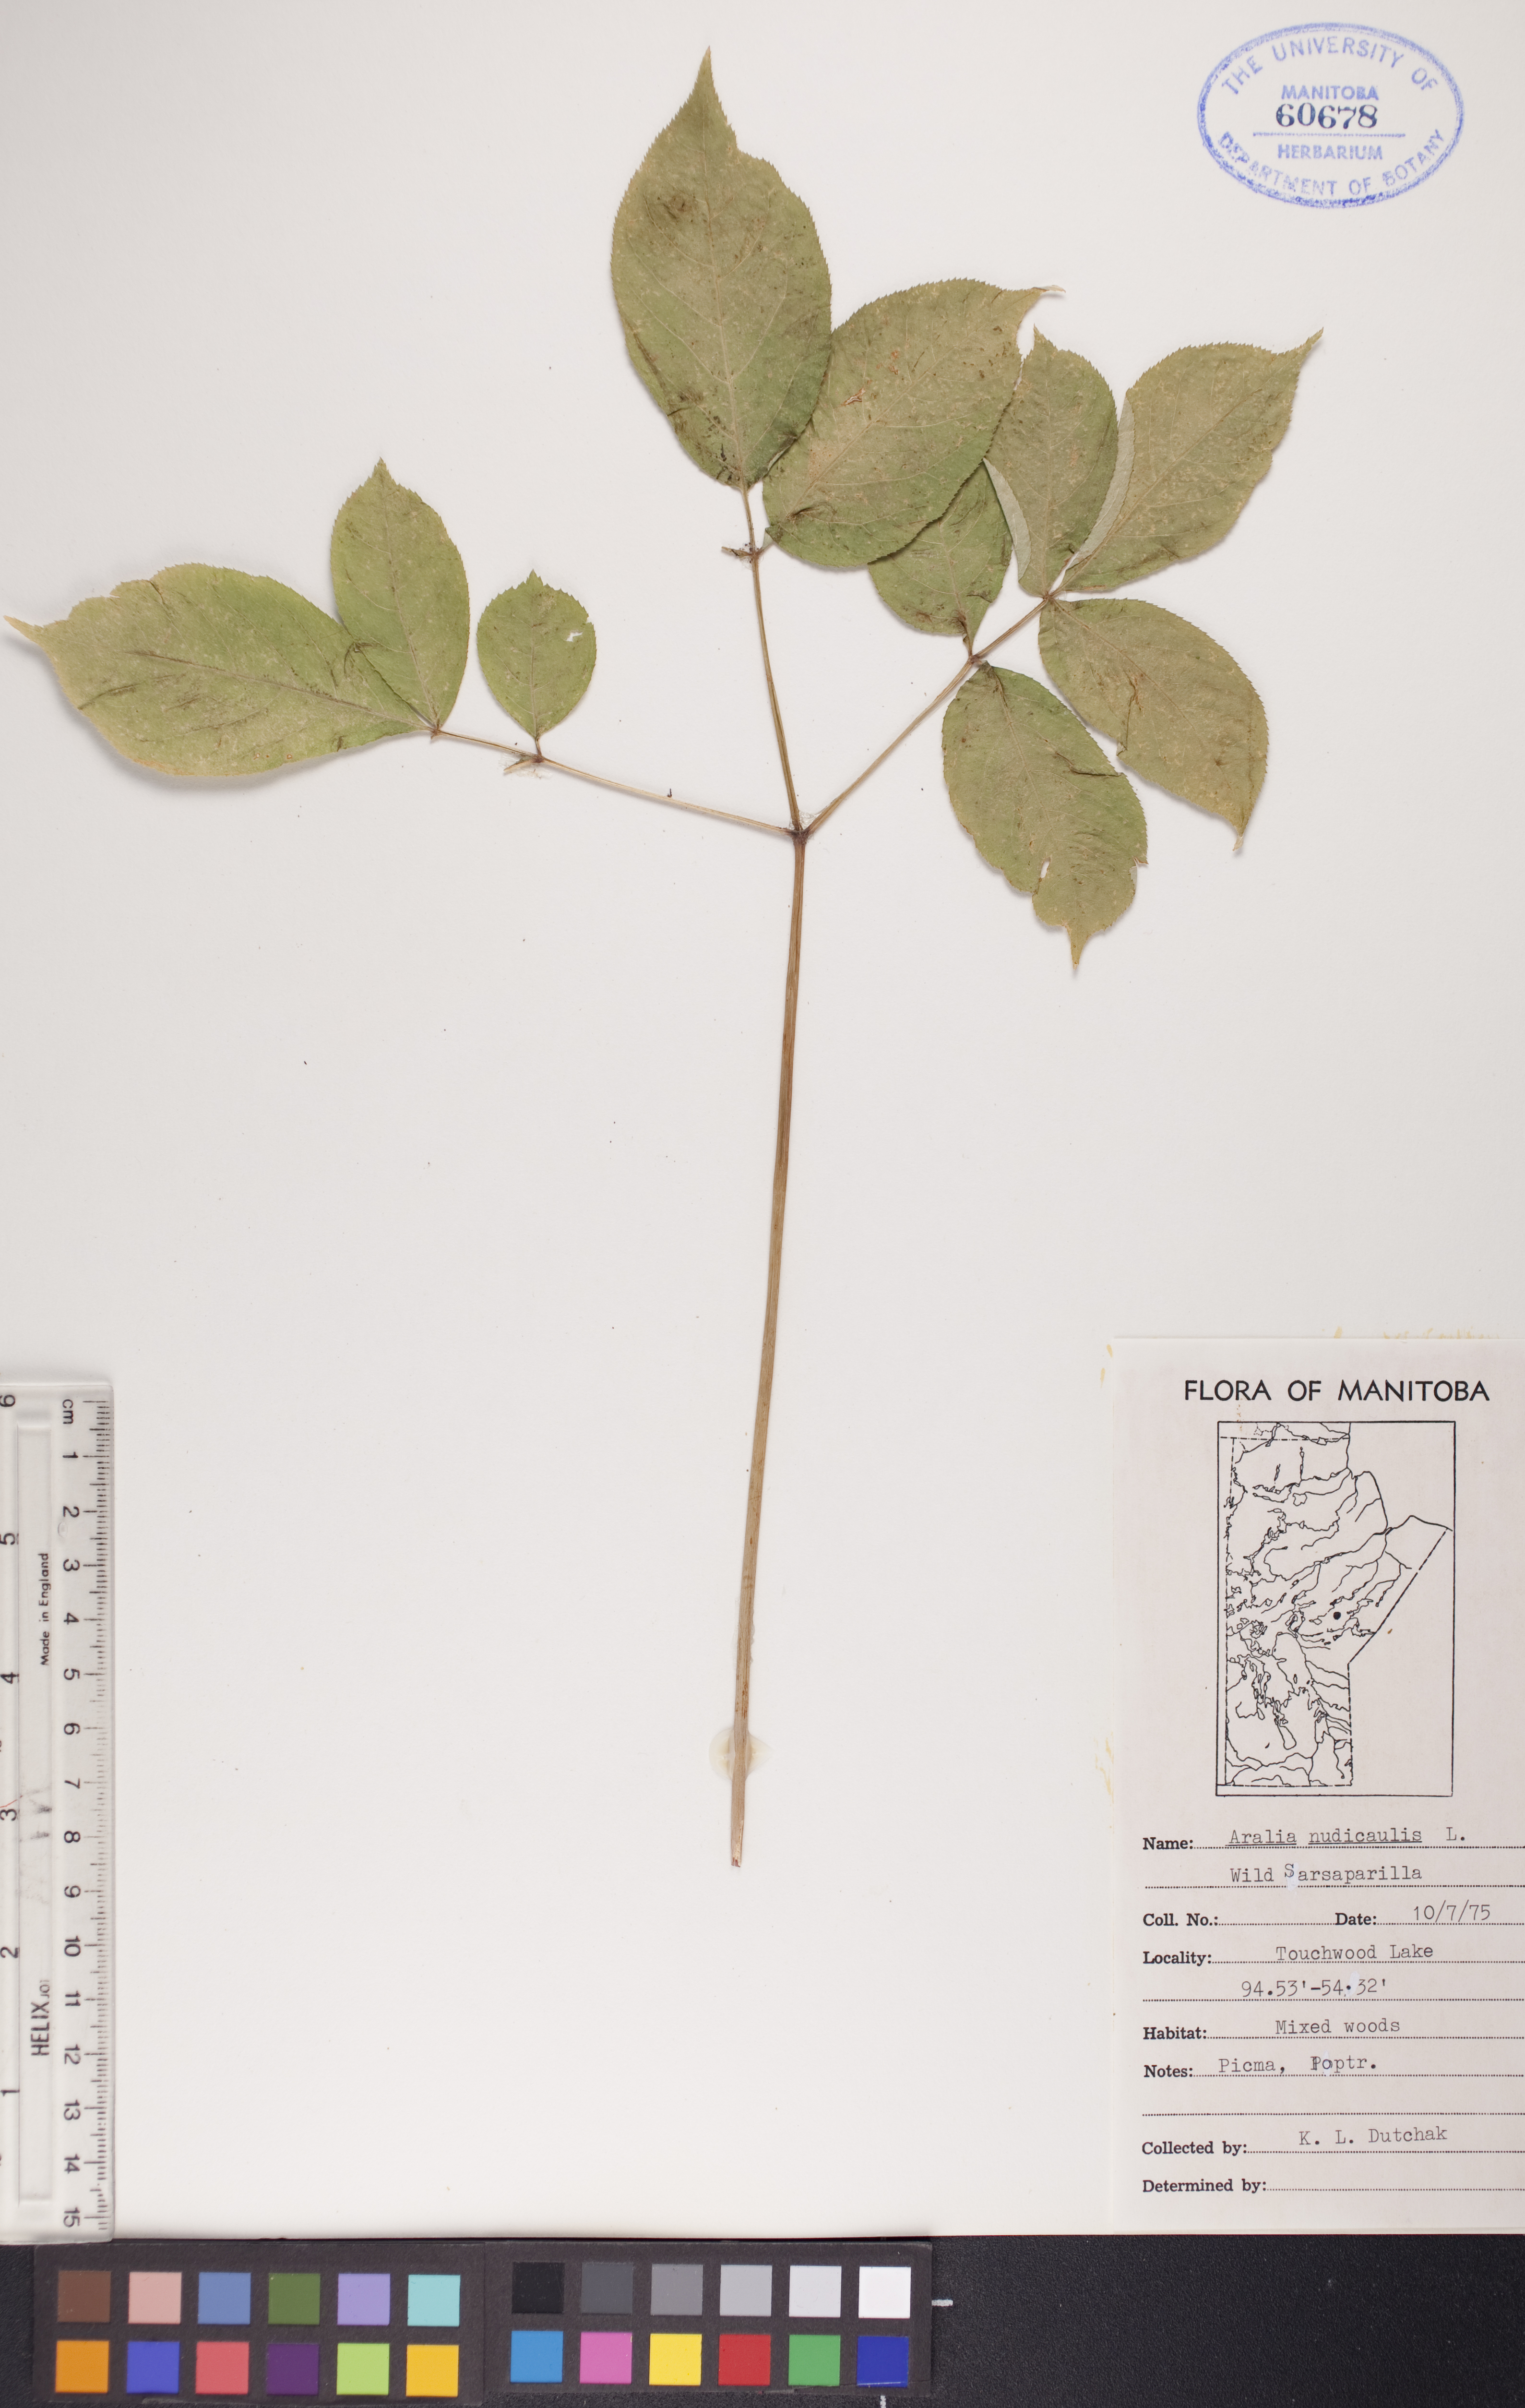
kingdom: Plantae
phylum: Tracheophyta
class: Magnoliopsida
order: Apiales
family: Araliaceae
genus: Aralia
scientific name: Aralia nudicaulis
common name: Wild sarsaparilla
